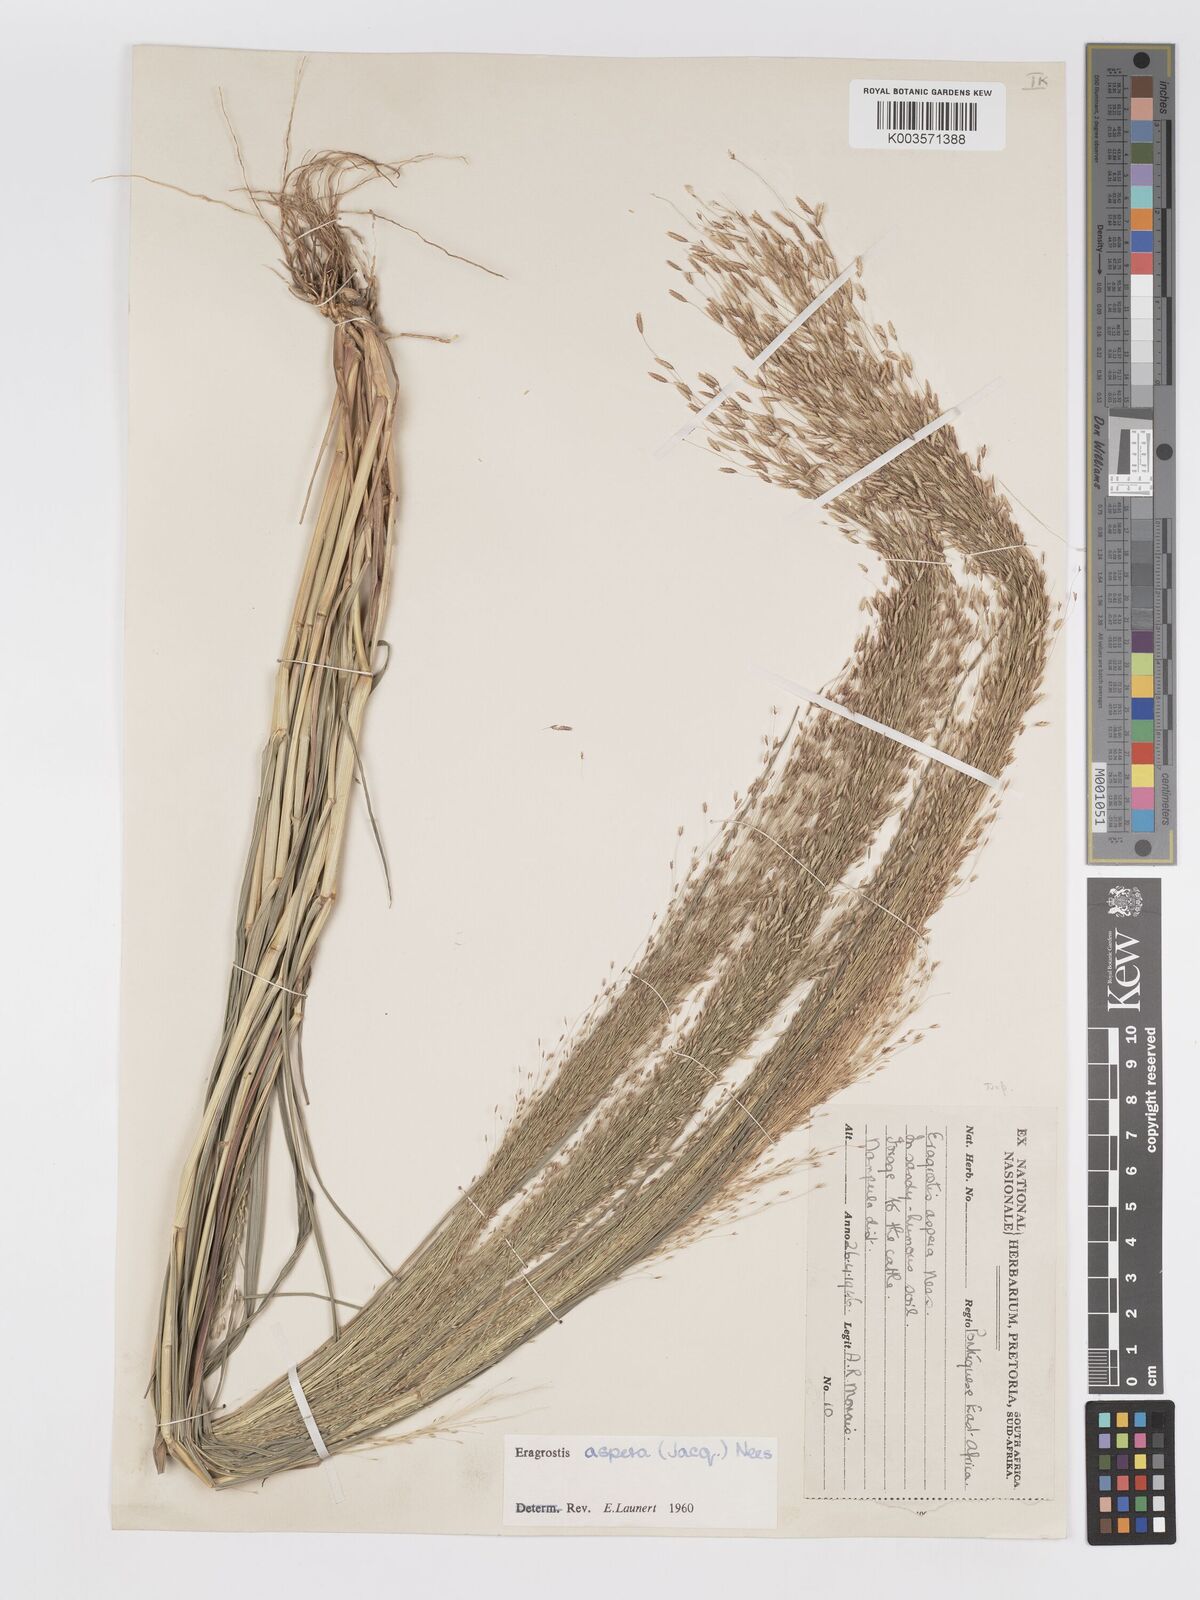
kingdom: Plantae
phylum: Tracheophyta
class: Liliopsida
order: Poales
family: Poaceae
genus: Eragrostis
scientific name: Eragrostis aspera
